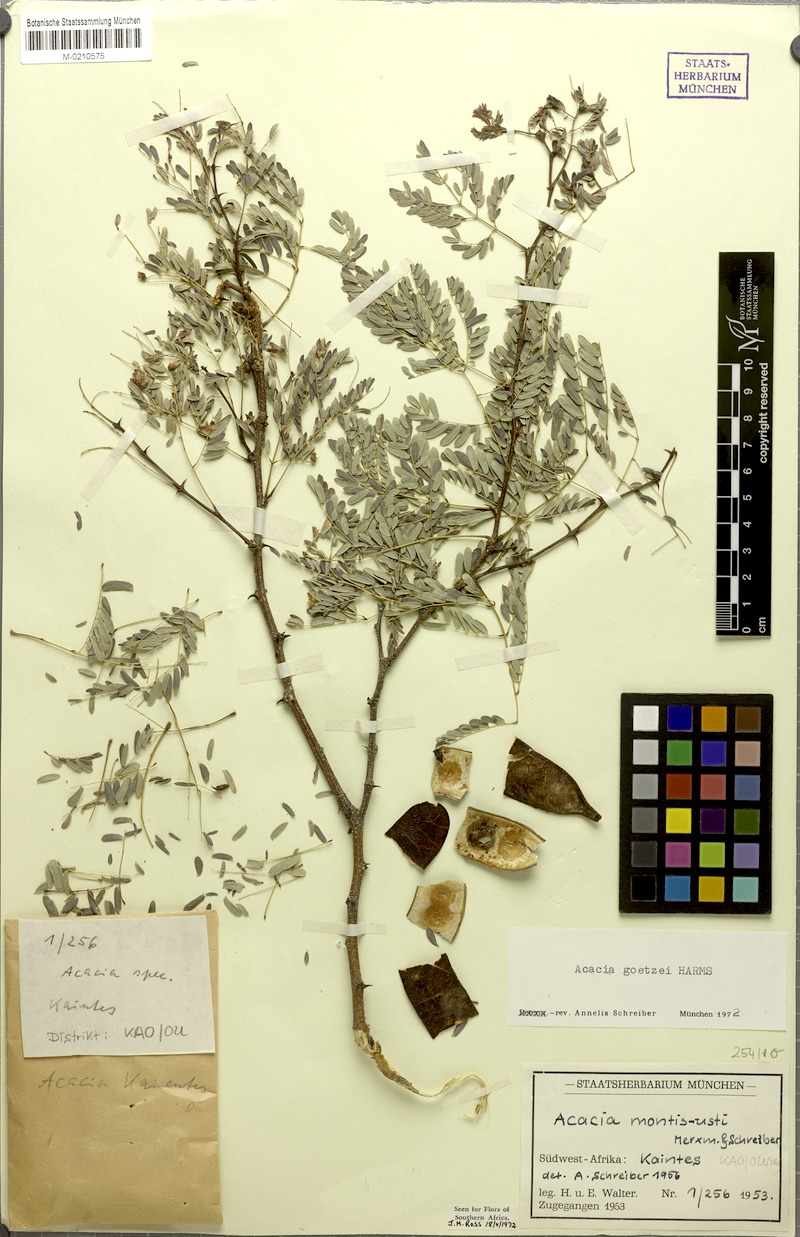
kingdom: Plantae
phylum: Tracheophyta
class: Magnoliopsida
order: Fabales
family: Fabaceae
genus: Senegalia
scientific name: Senegalia goetzei
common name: Purplepod acacia
